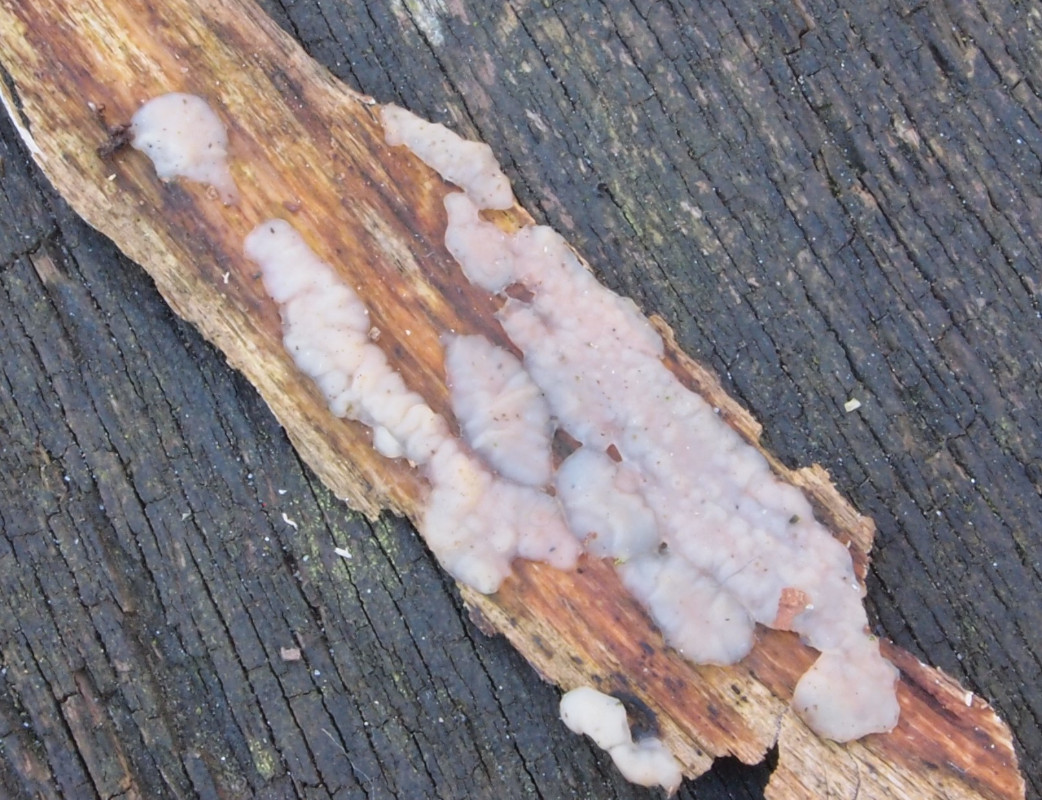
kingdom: Fungi
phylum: Basidiomycota
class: Agaricomycetes
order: Auriculariales
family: Auriculariaceae
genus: Exidia
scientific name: Exidia thuretiana
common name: hvidlig bævretop
